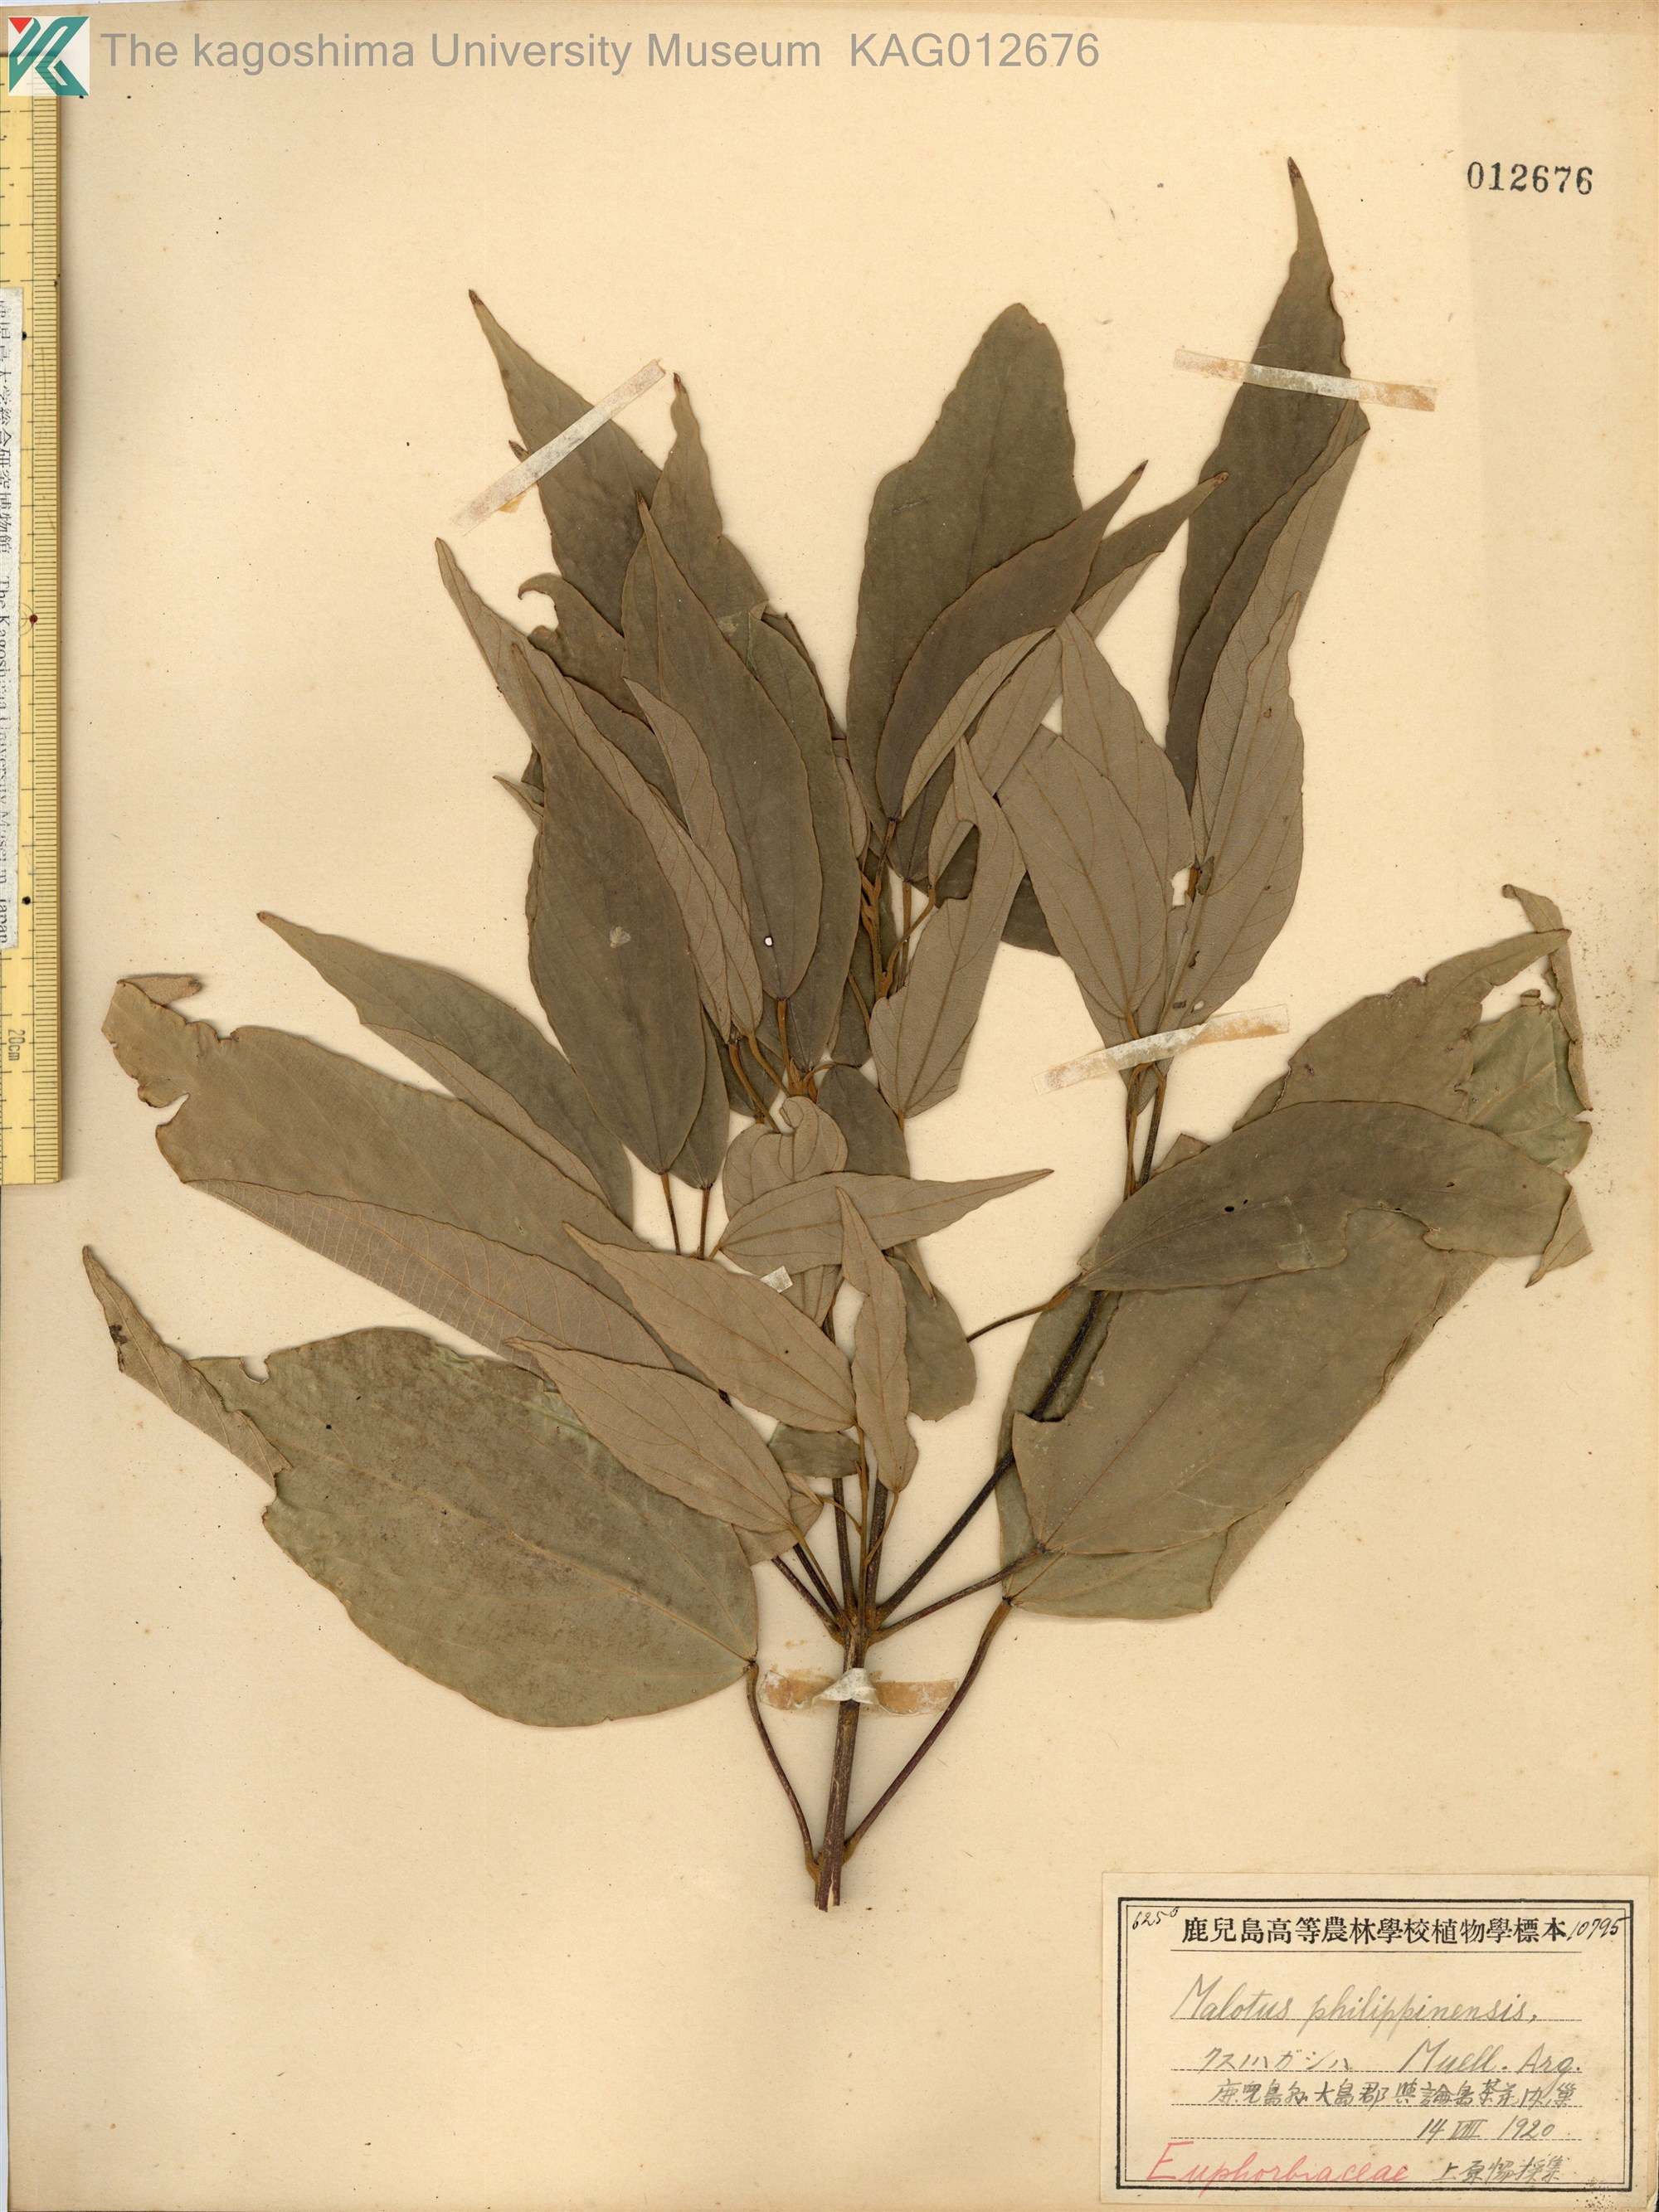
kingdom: Plantae
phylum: Tracheophyta
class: Magnoliopsida
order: Malpighiales
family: Euphorbiaceae
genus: Mallotus
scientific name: Mallotus philippensis
